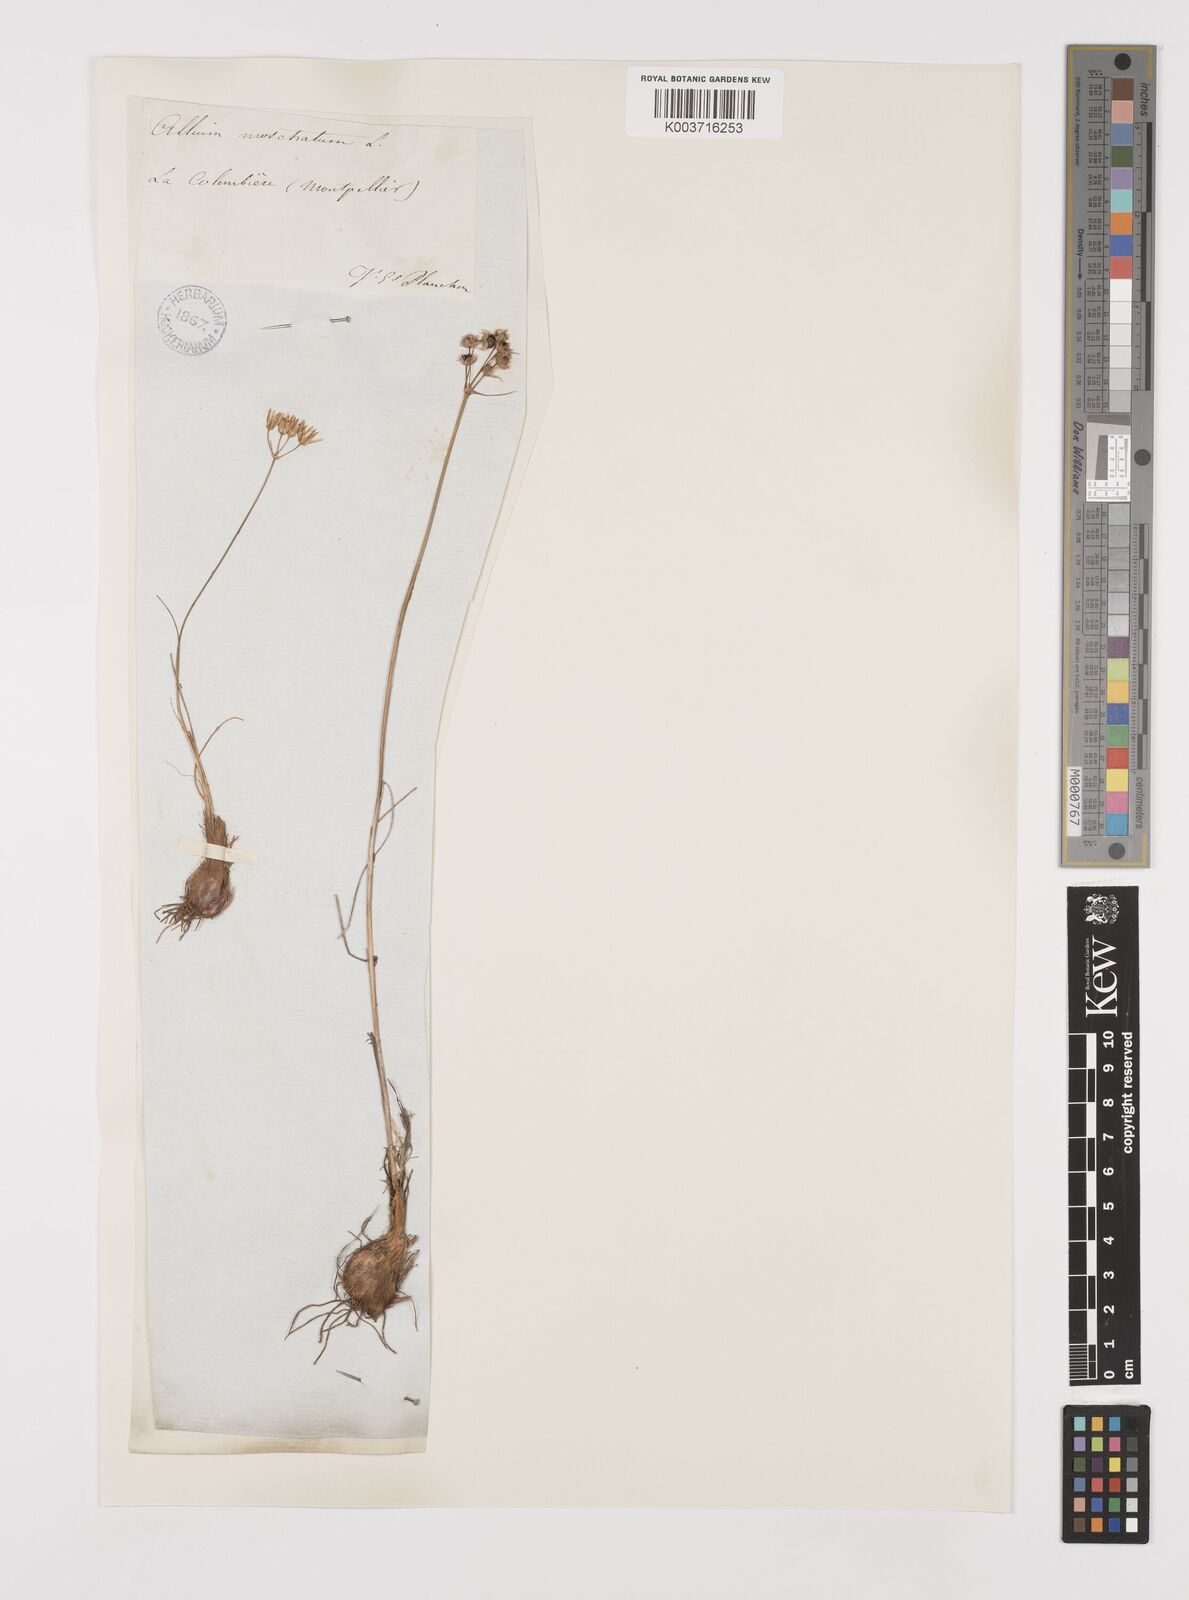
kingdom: Plantae
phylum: Tracheophyta
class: Liliopsida
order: Asparagales
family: Amaryllidaceae
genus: Allium
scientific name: Allium moschatum
